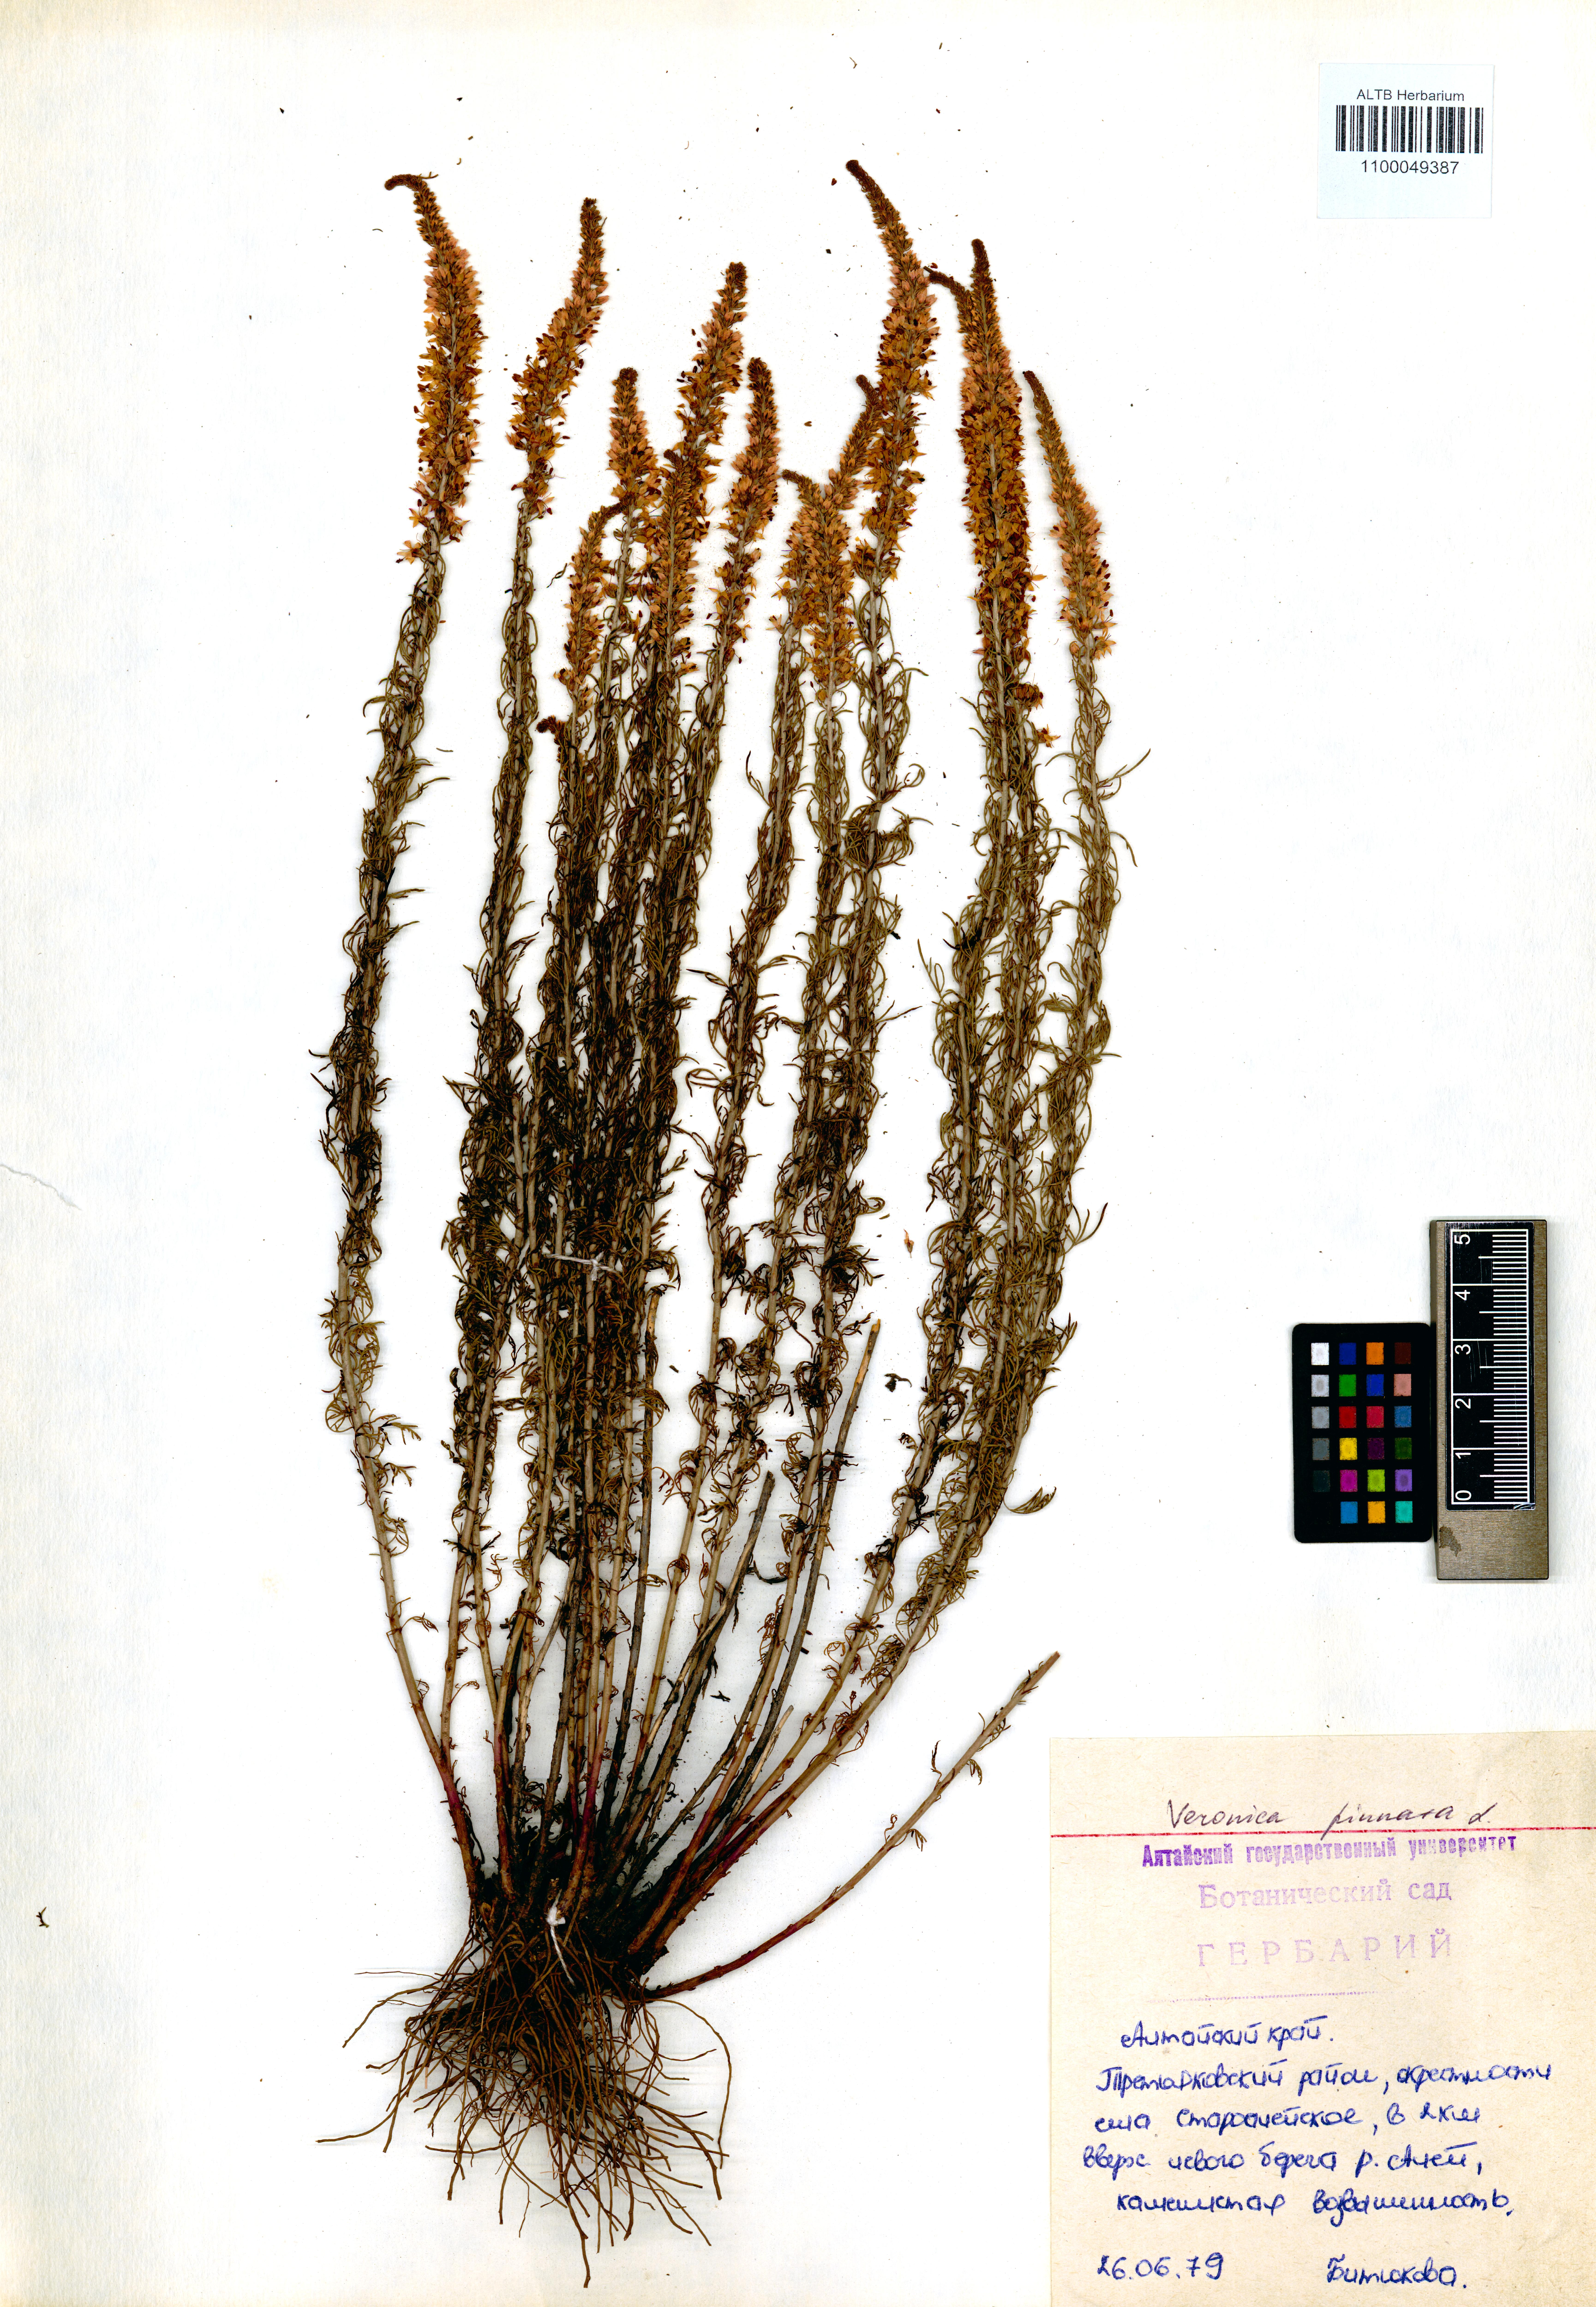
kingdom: Plantae
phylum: Tracheophyta
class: Magnoliopsida
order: Lamiales
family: Plantaginaceae
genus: Veronica
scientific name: Veronica pinnata
